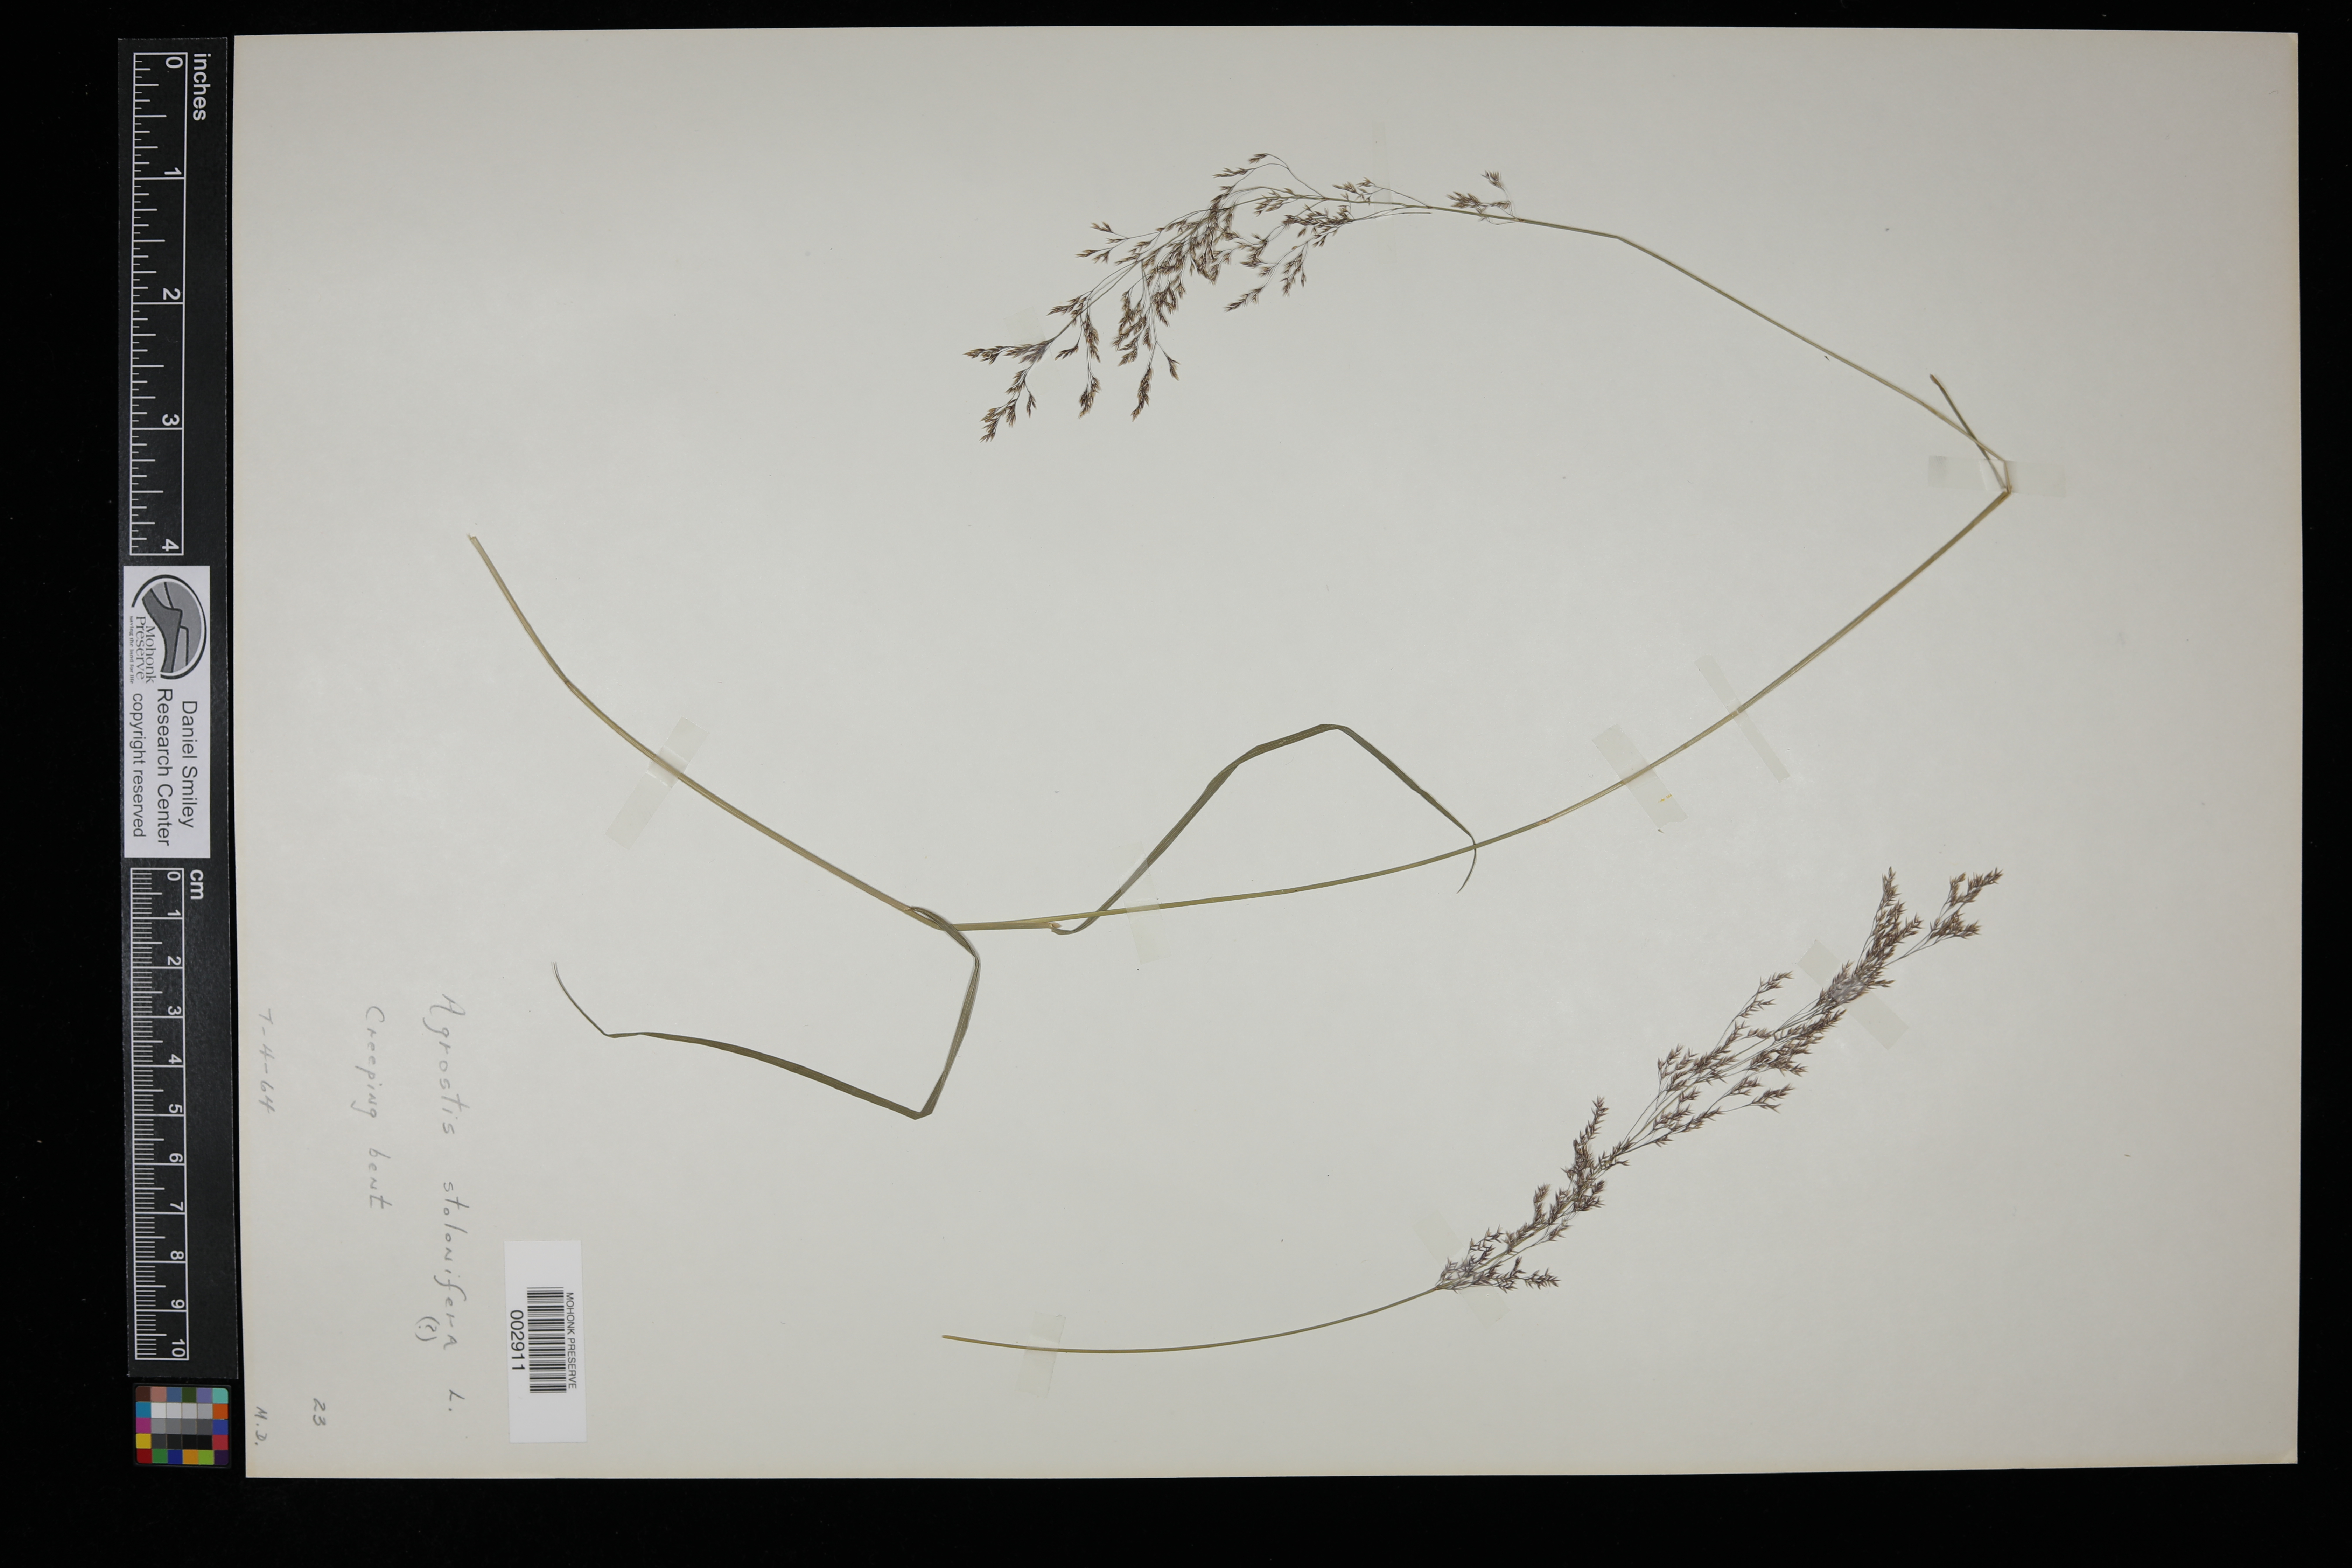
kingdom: Plantae
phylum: Tracheophyta
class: Liliopsida
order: Poales
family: Poaceae
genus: Agrostis
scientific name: Agrostis stolonifera
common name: Creeping bentgrass
